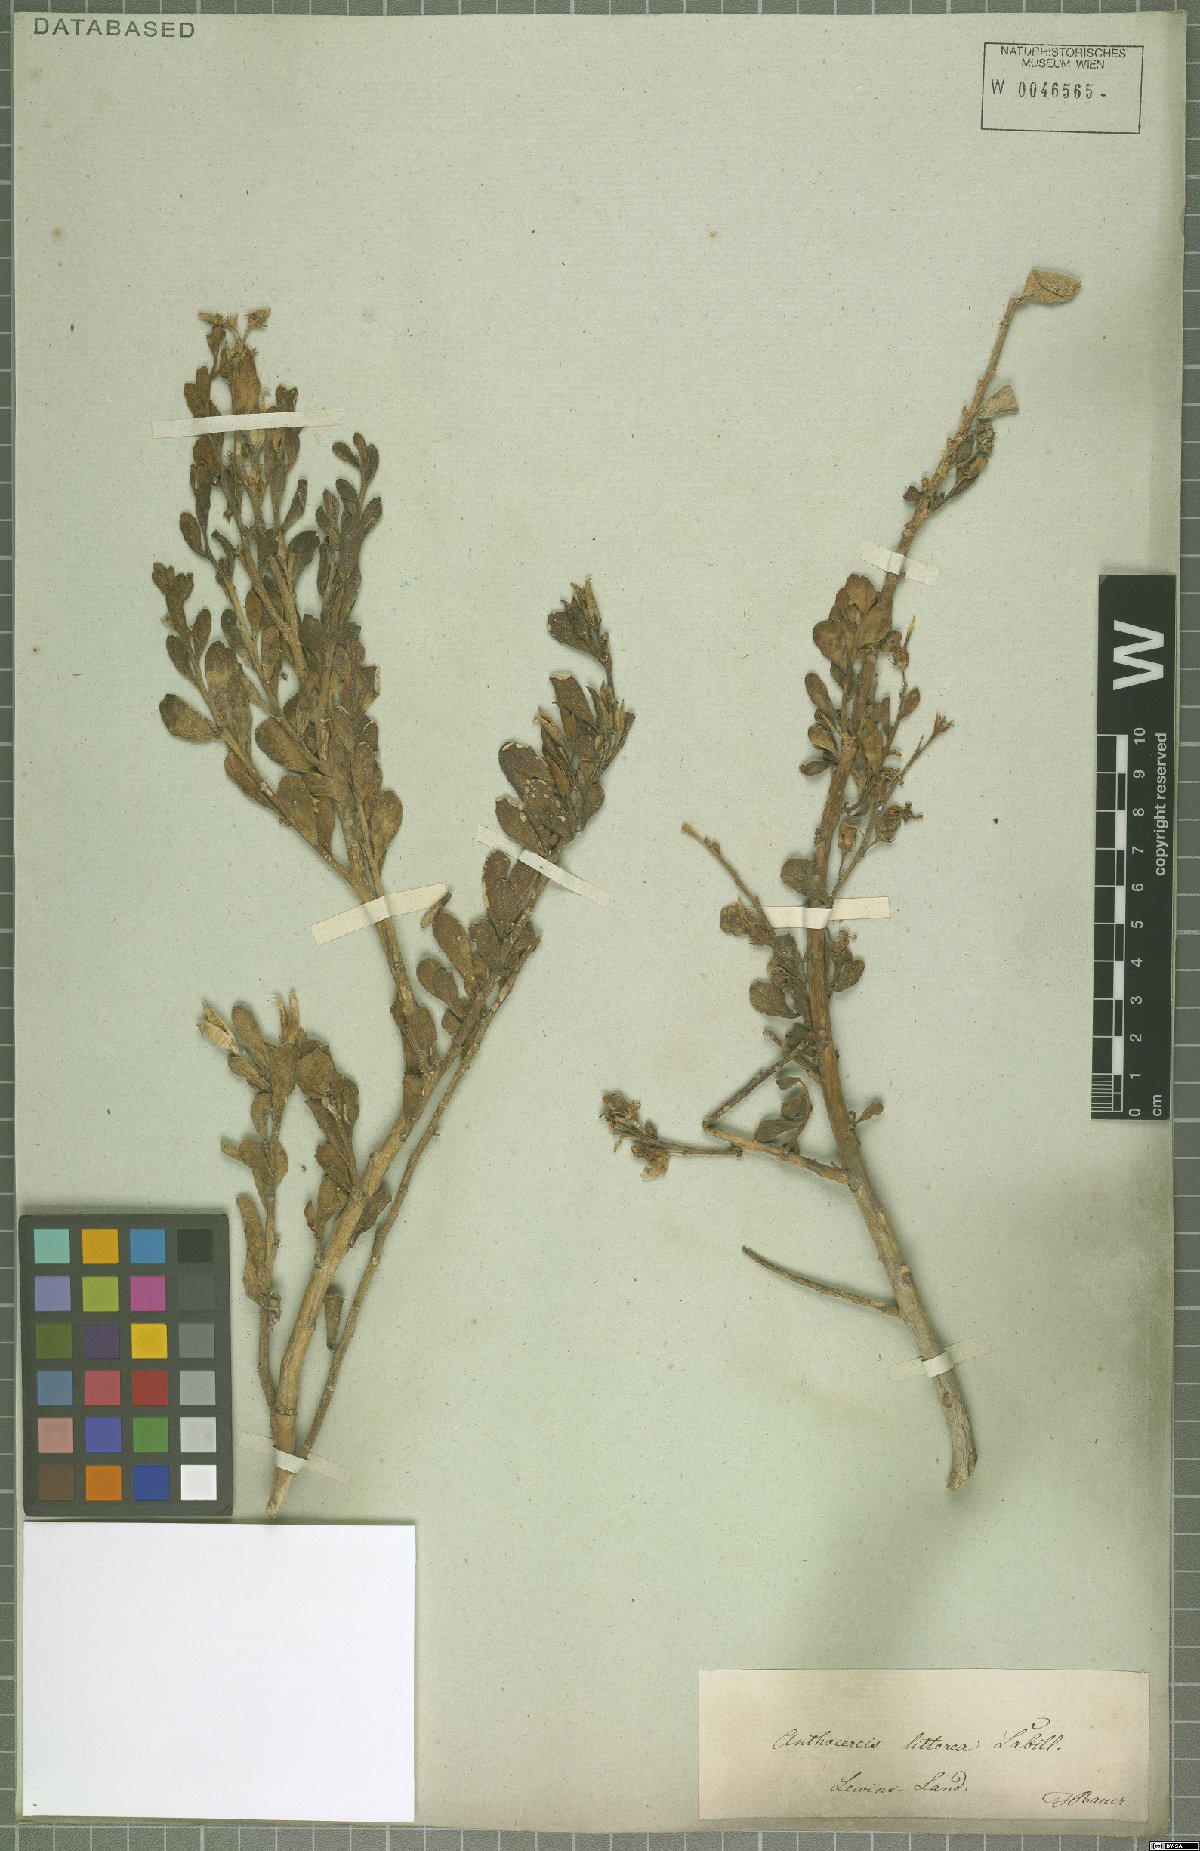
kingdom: Plantae
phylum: Tracheophyta
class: Magnoliopsida
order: Solanales
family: Solanaceae
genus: Anthocercis
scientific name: Anthocercis littorea
